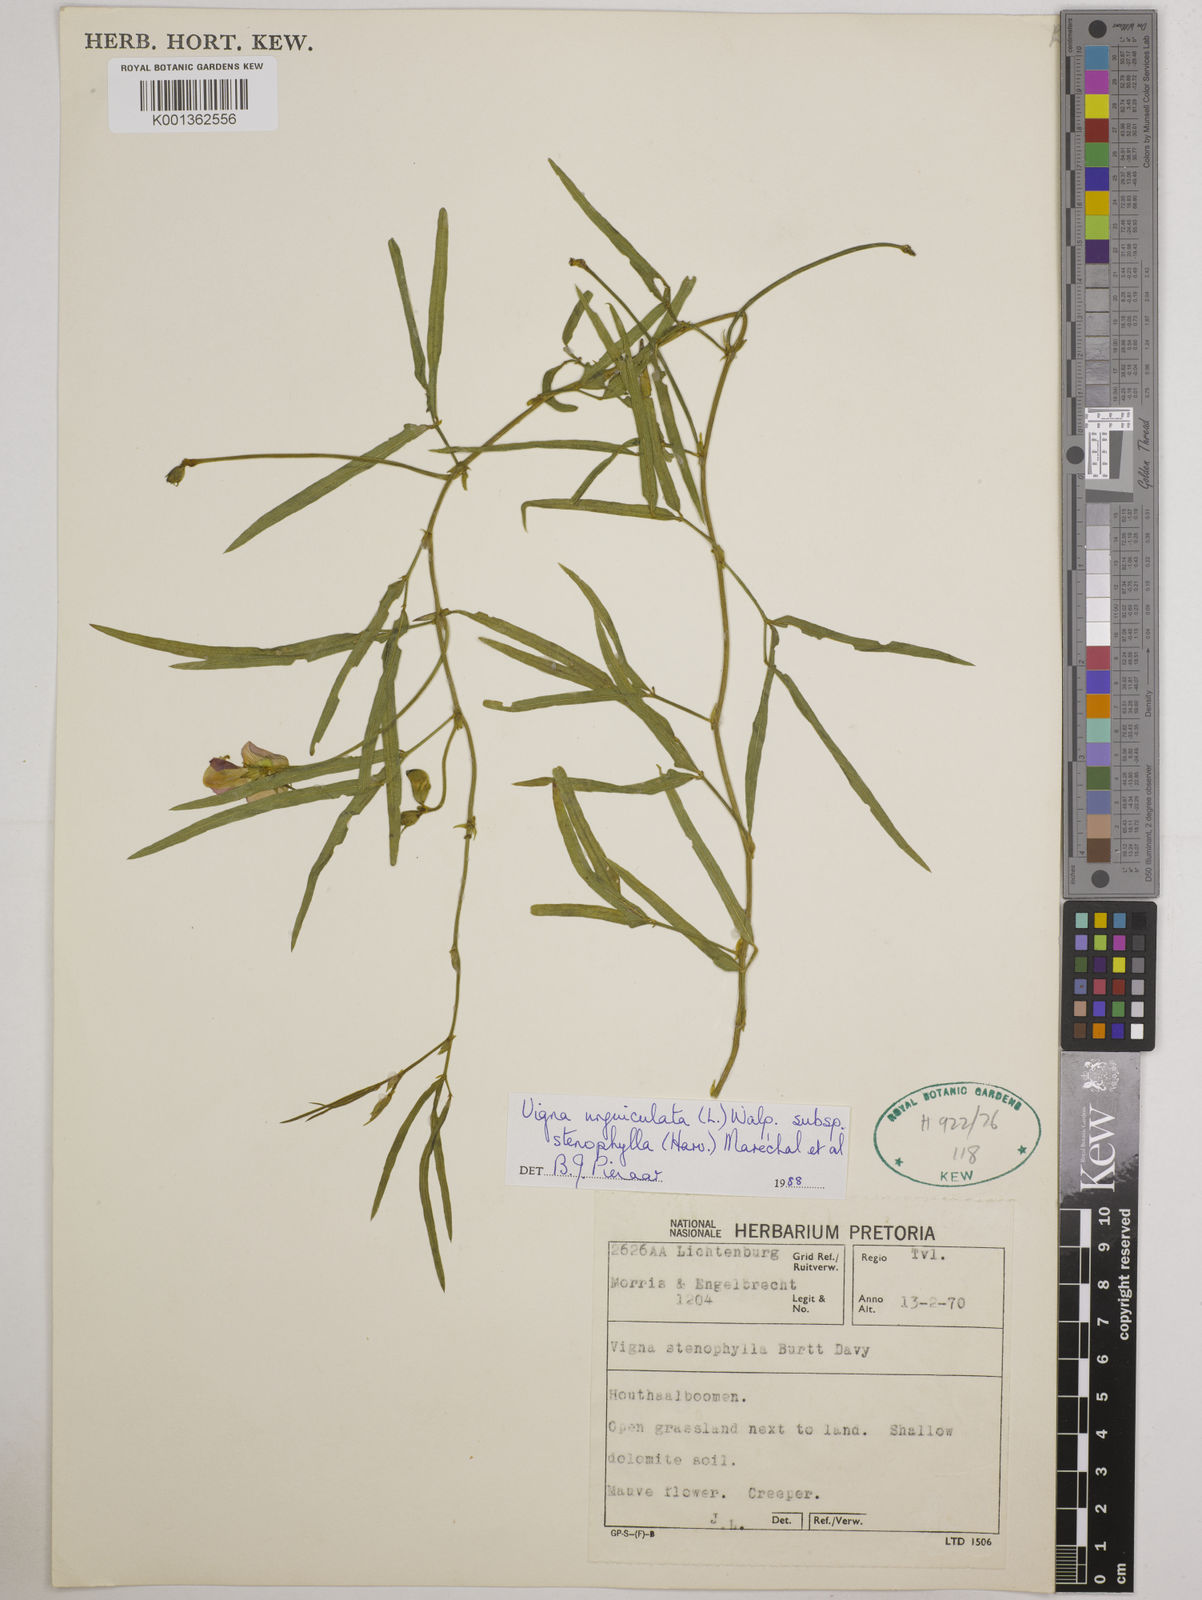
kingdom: Plantae
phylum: Tracheophyta
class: Magnoliopsida
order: Fabales
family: Fabaceae
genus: Vigna
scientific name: Vigna
